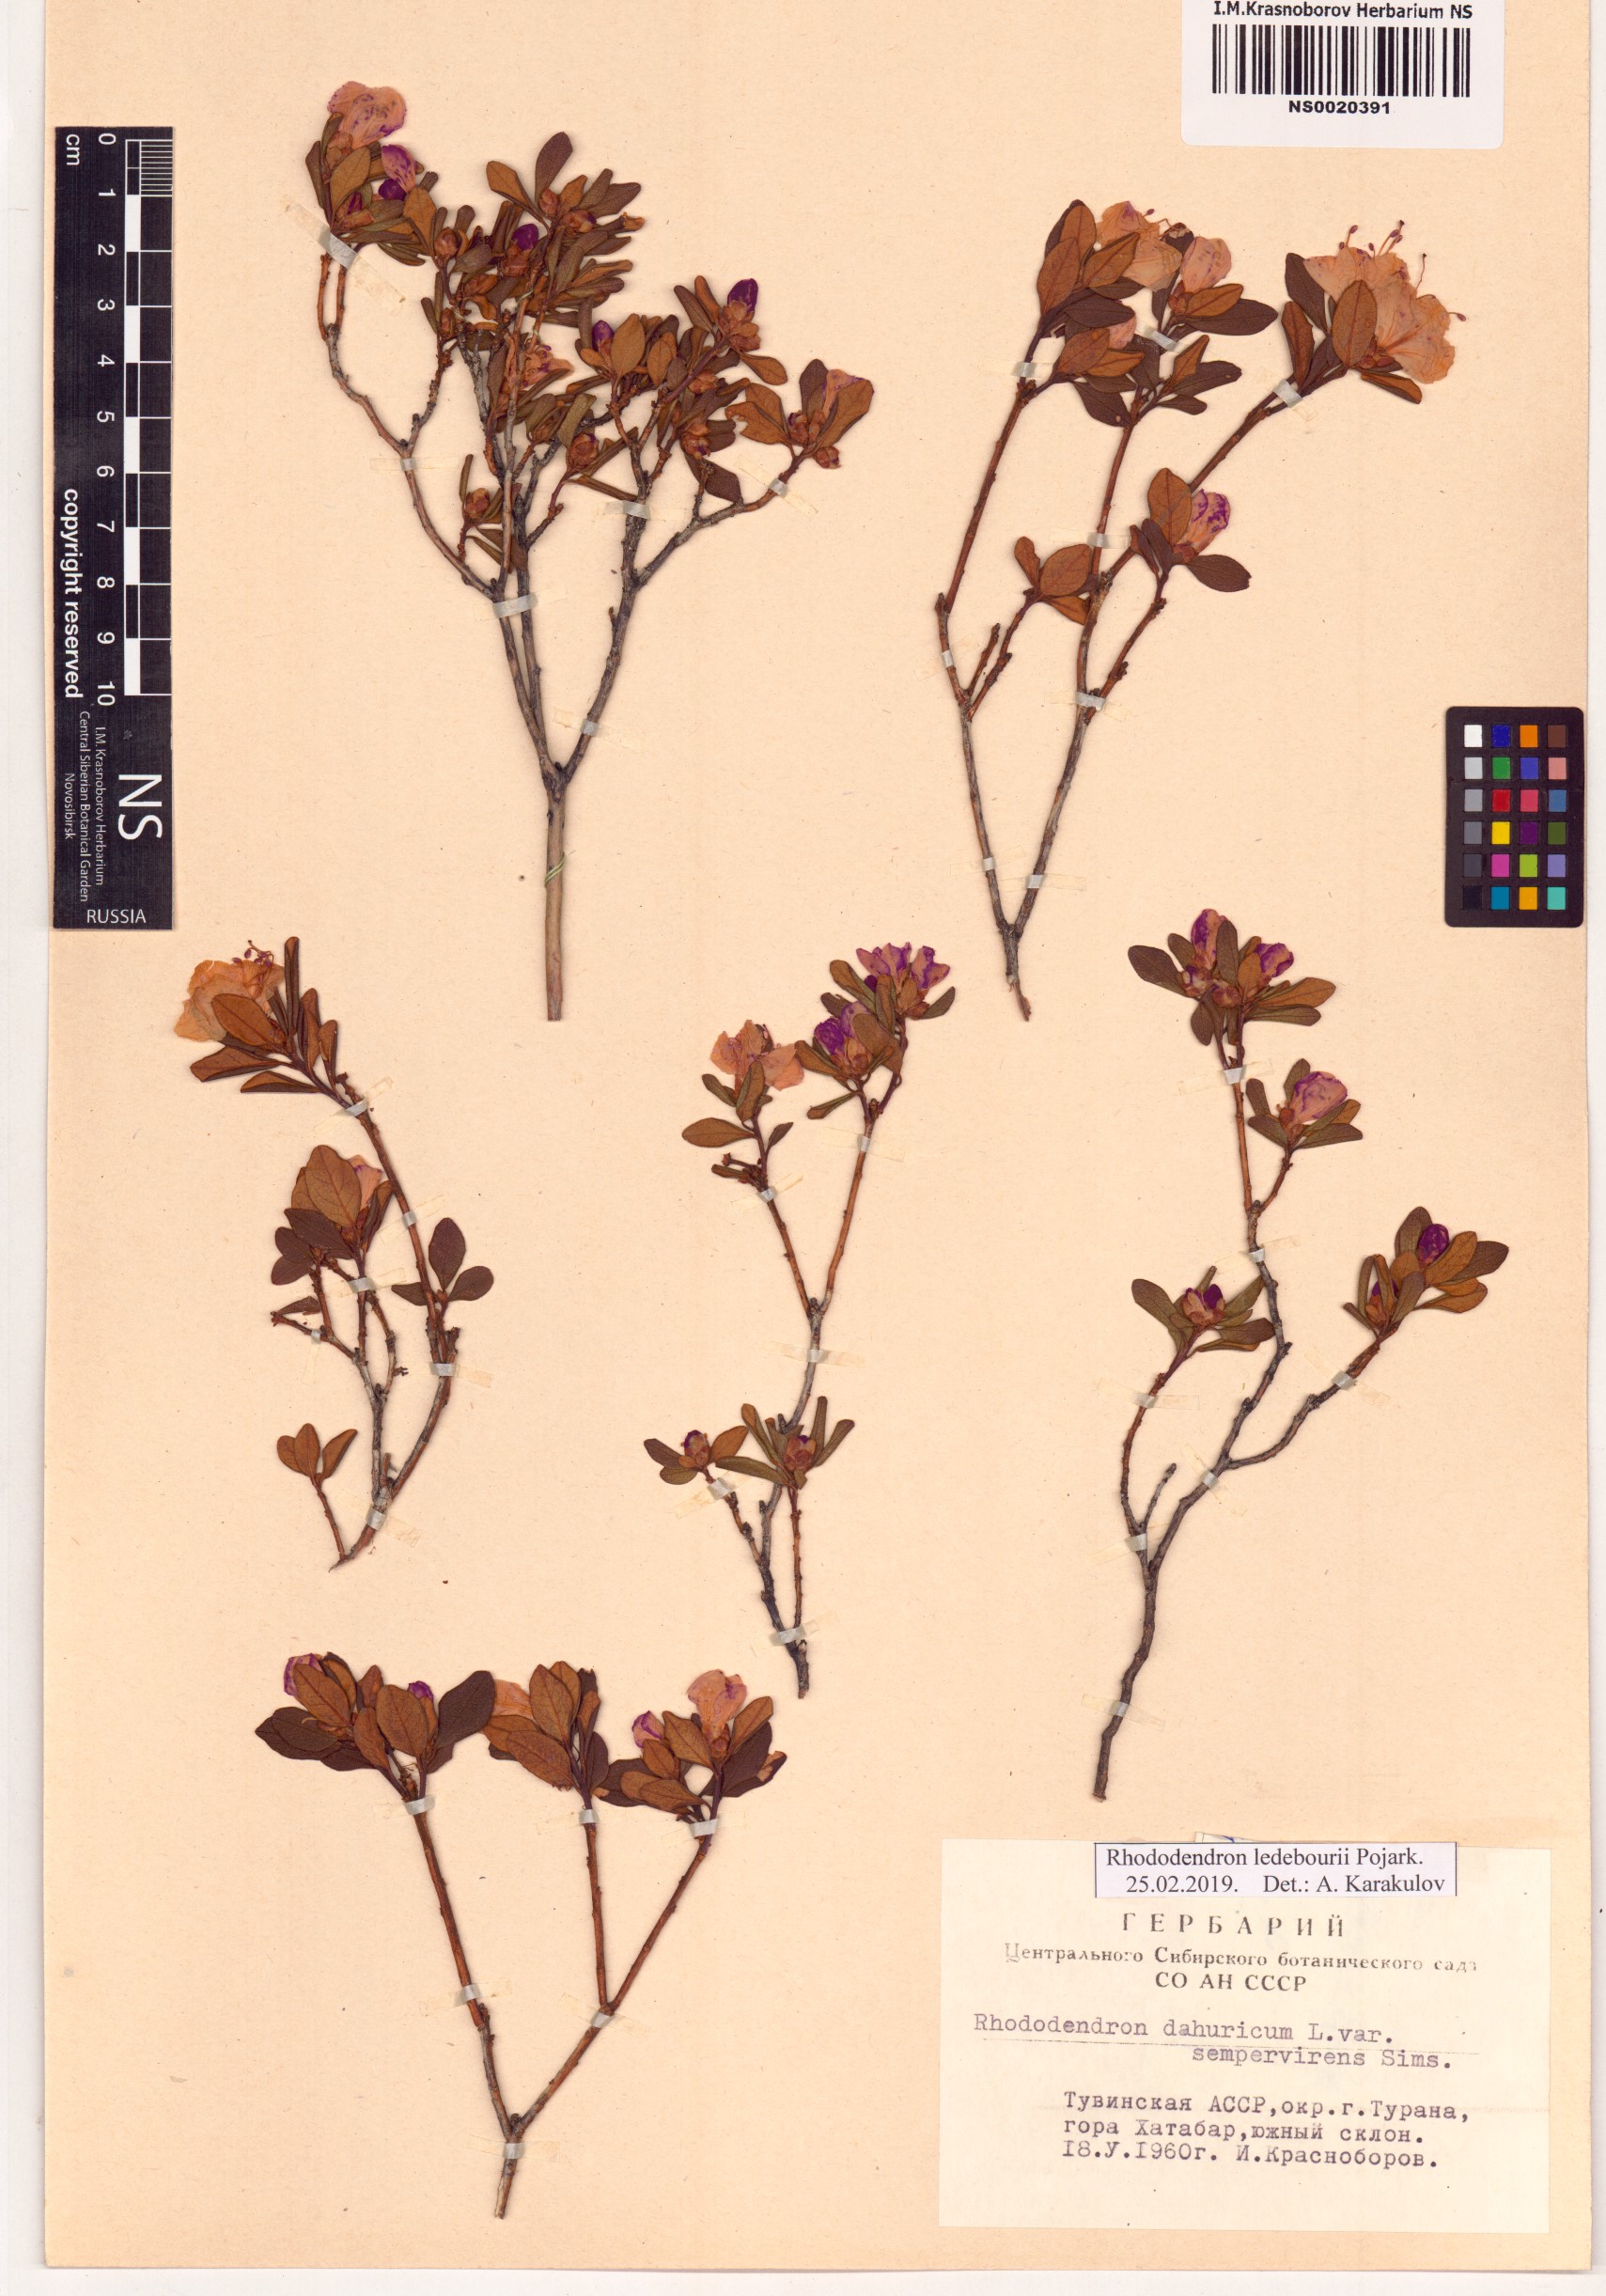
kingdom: Plantae
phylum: Tracheophyta
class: Magnoliopsida
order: Ericales
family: Ericaceae
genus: Rhododendron
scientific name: Rhododendron dauricum
